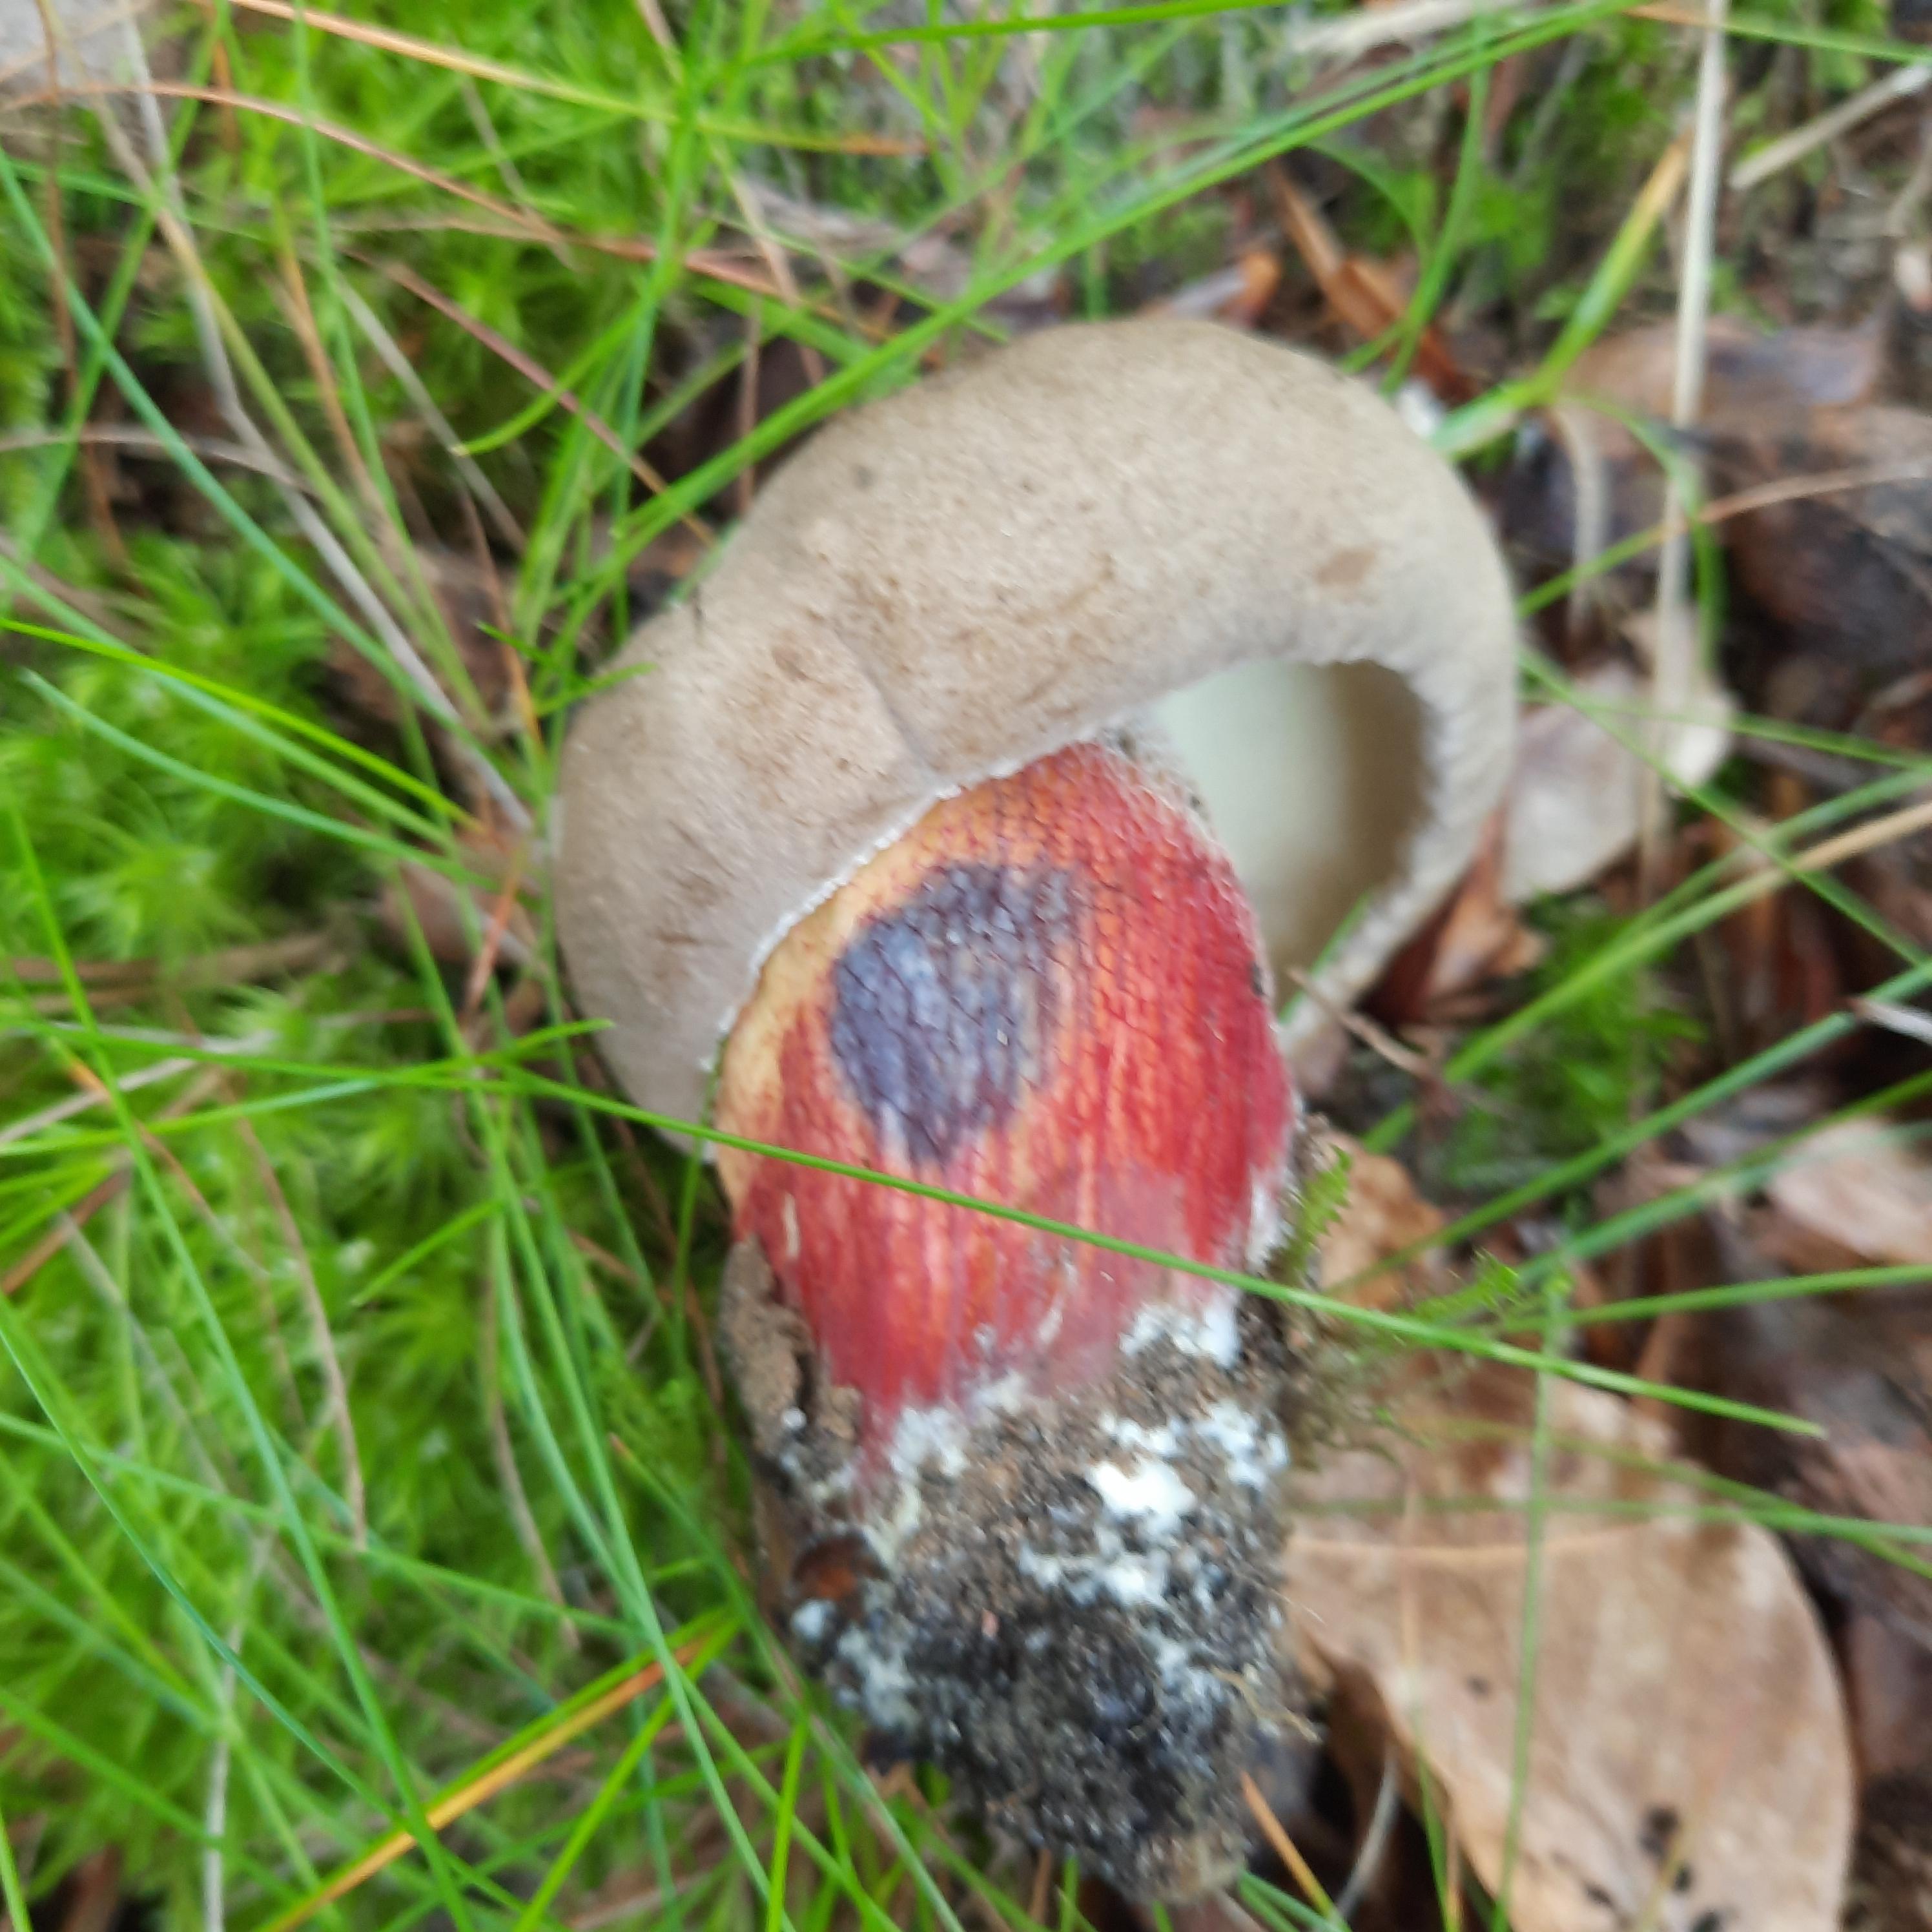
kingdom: Fungi
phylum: Basidiomycota
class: Agaricomycetes
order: Boletales
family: Boletaceae
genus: Caloboletus
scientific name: Caloboletus calopus
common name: skønfodet rørhat
